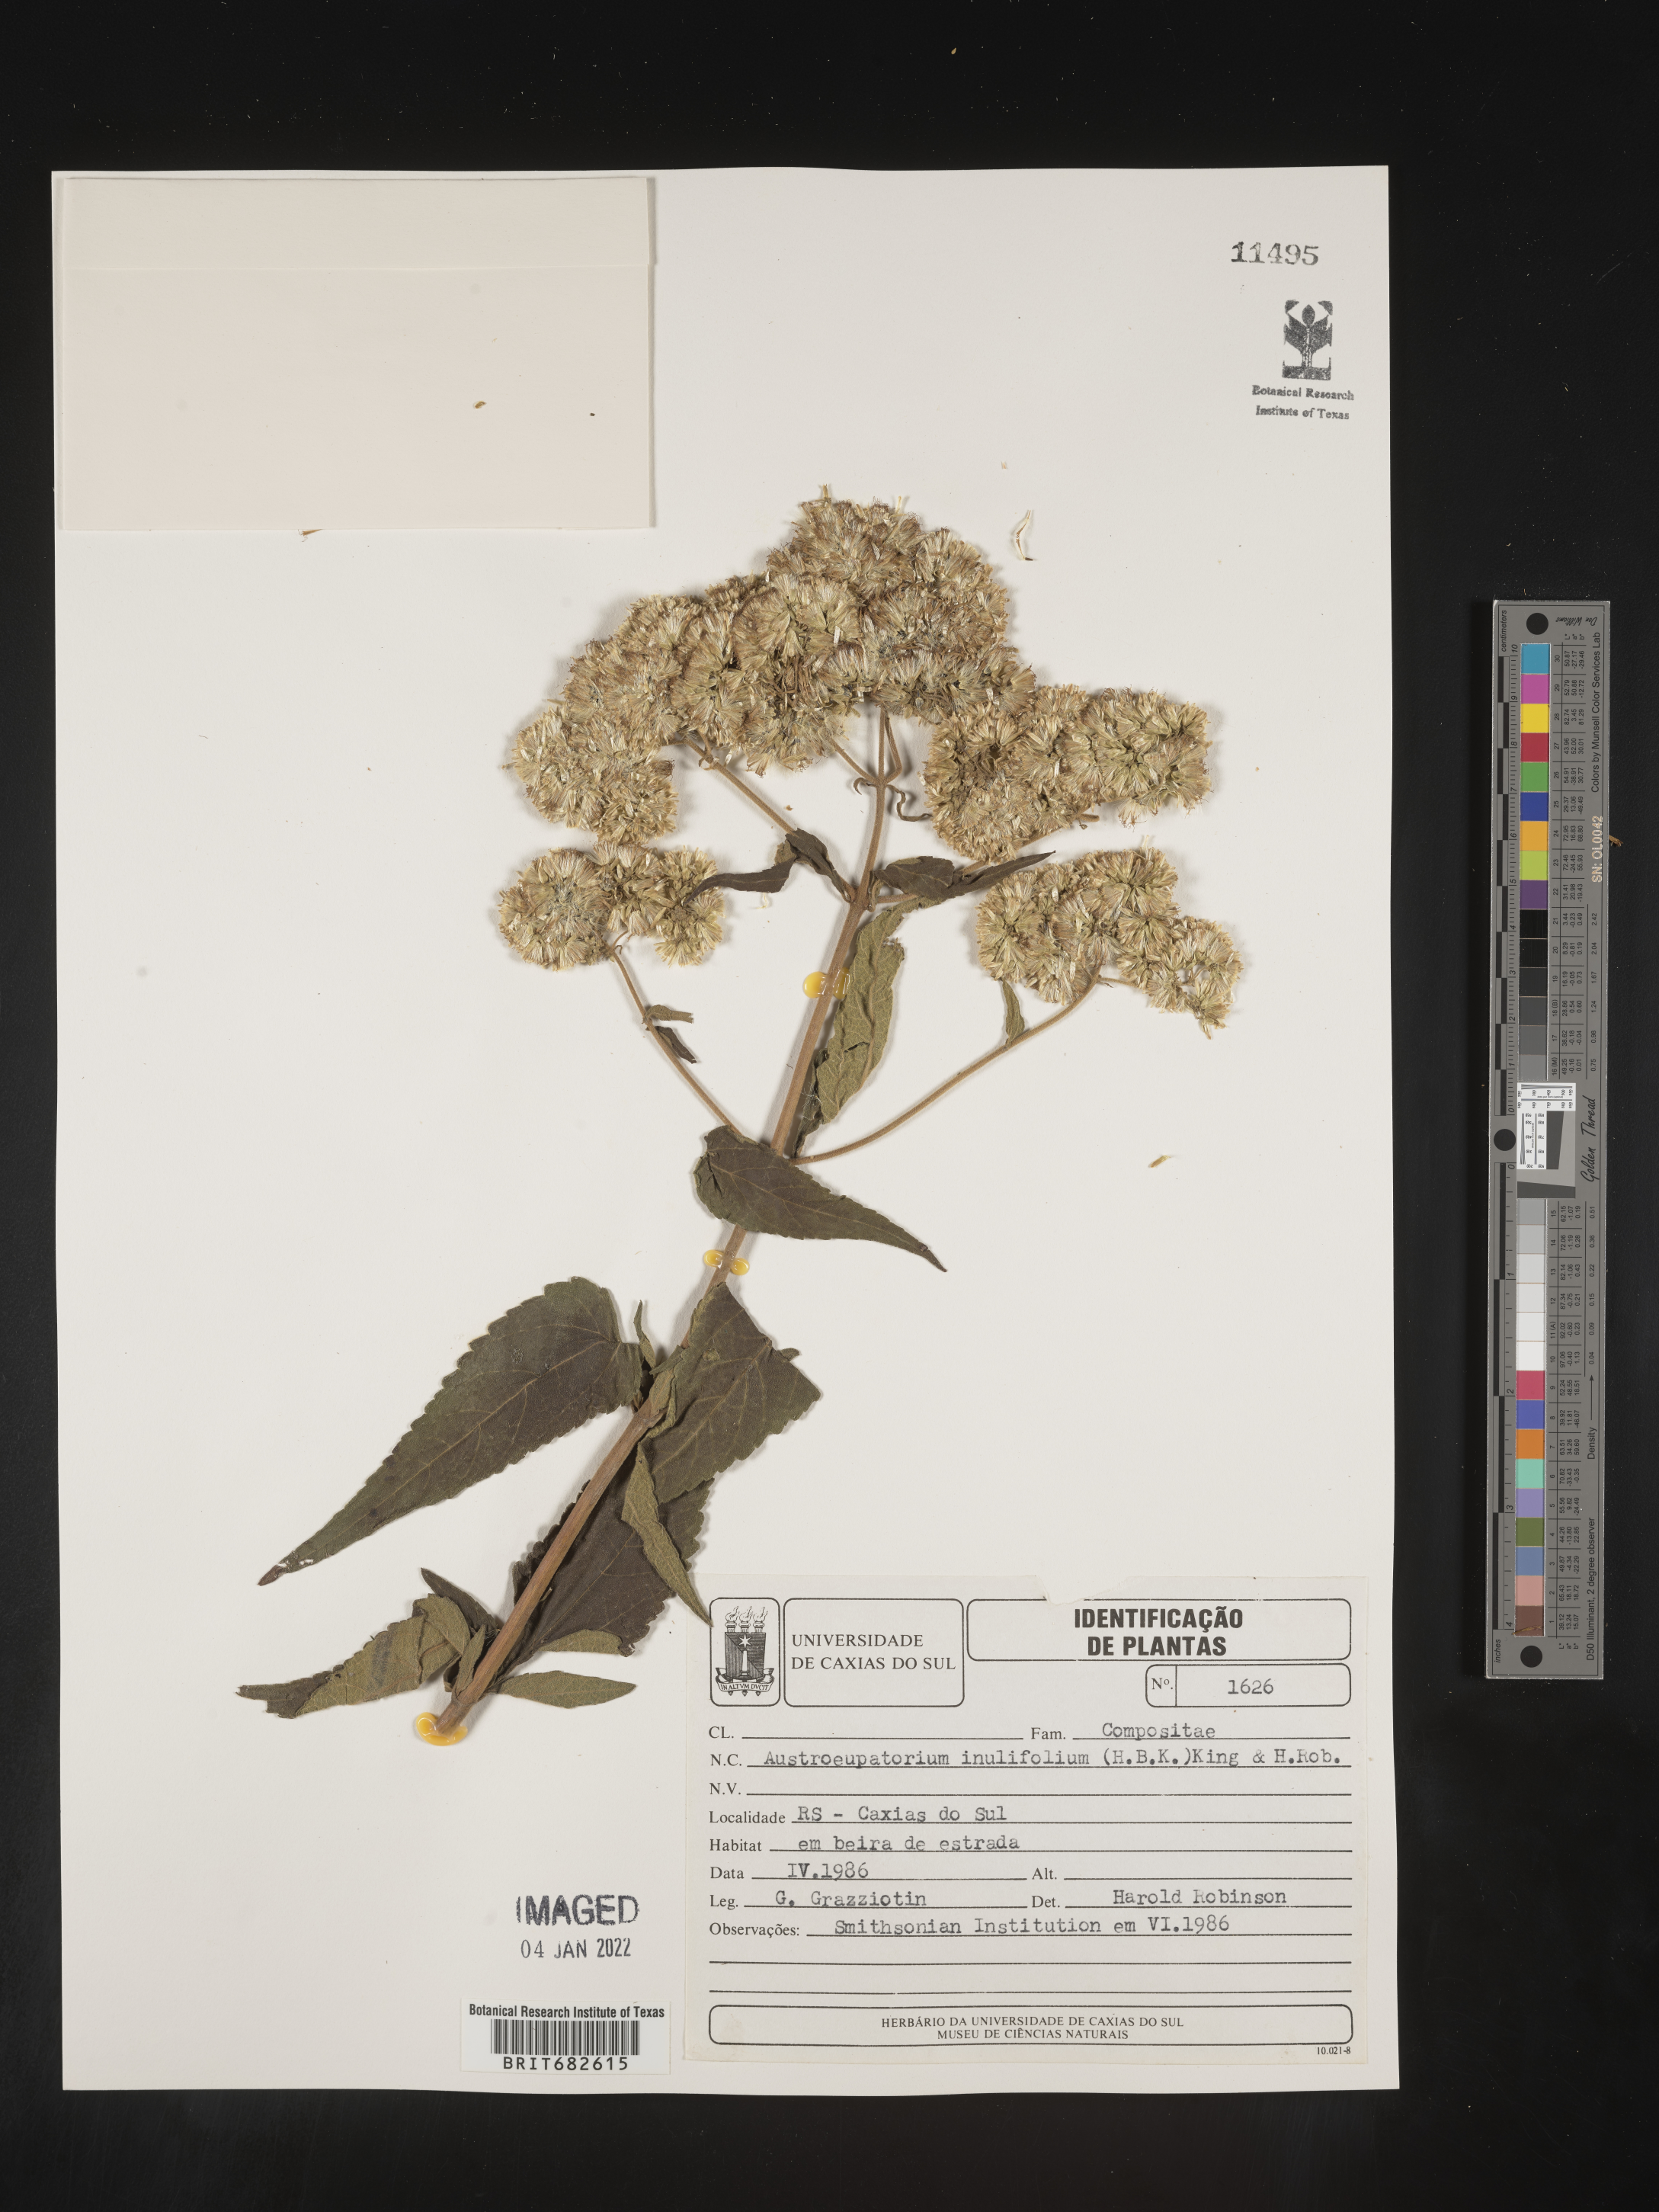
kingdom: Plantae
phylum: Tracheophyta
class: Magnoliopsida
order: Asterales
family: Asteraceae
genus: Austroeupatorium
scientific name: Austroeupatorium
